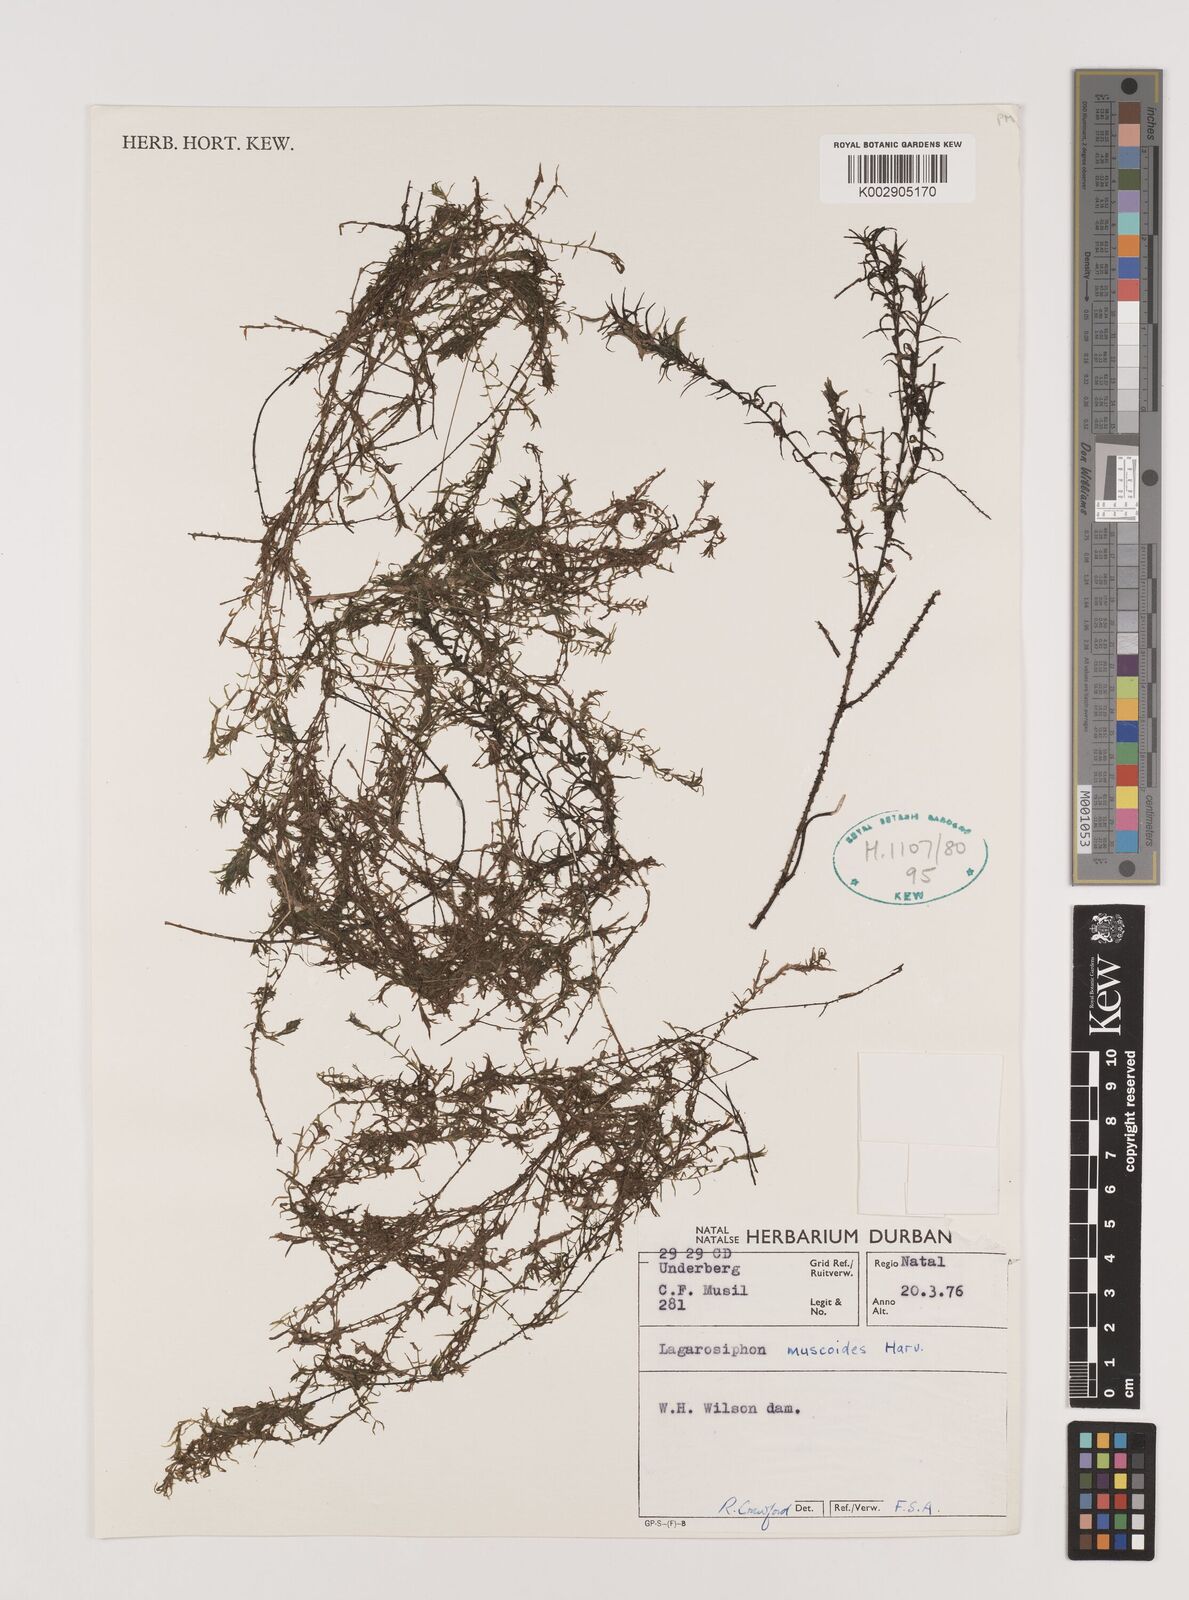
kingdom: Plantae
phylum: Tracheophyta
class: Liliopsida
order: Alismatales
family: Hydrocharitaceae
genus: Lagarosiphon
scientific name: Lagarosiphon muscoides
